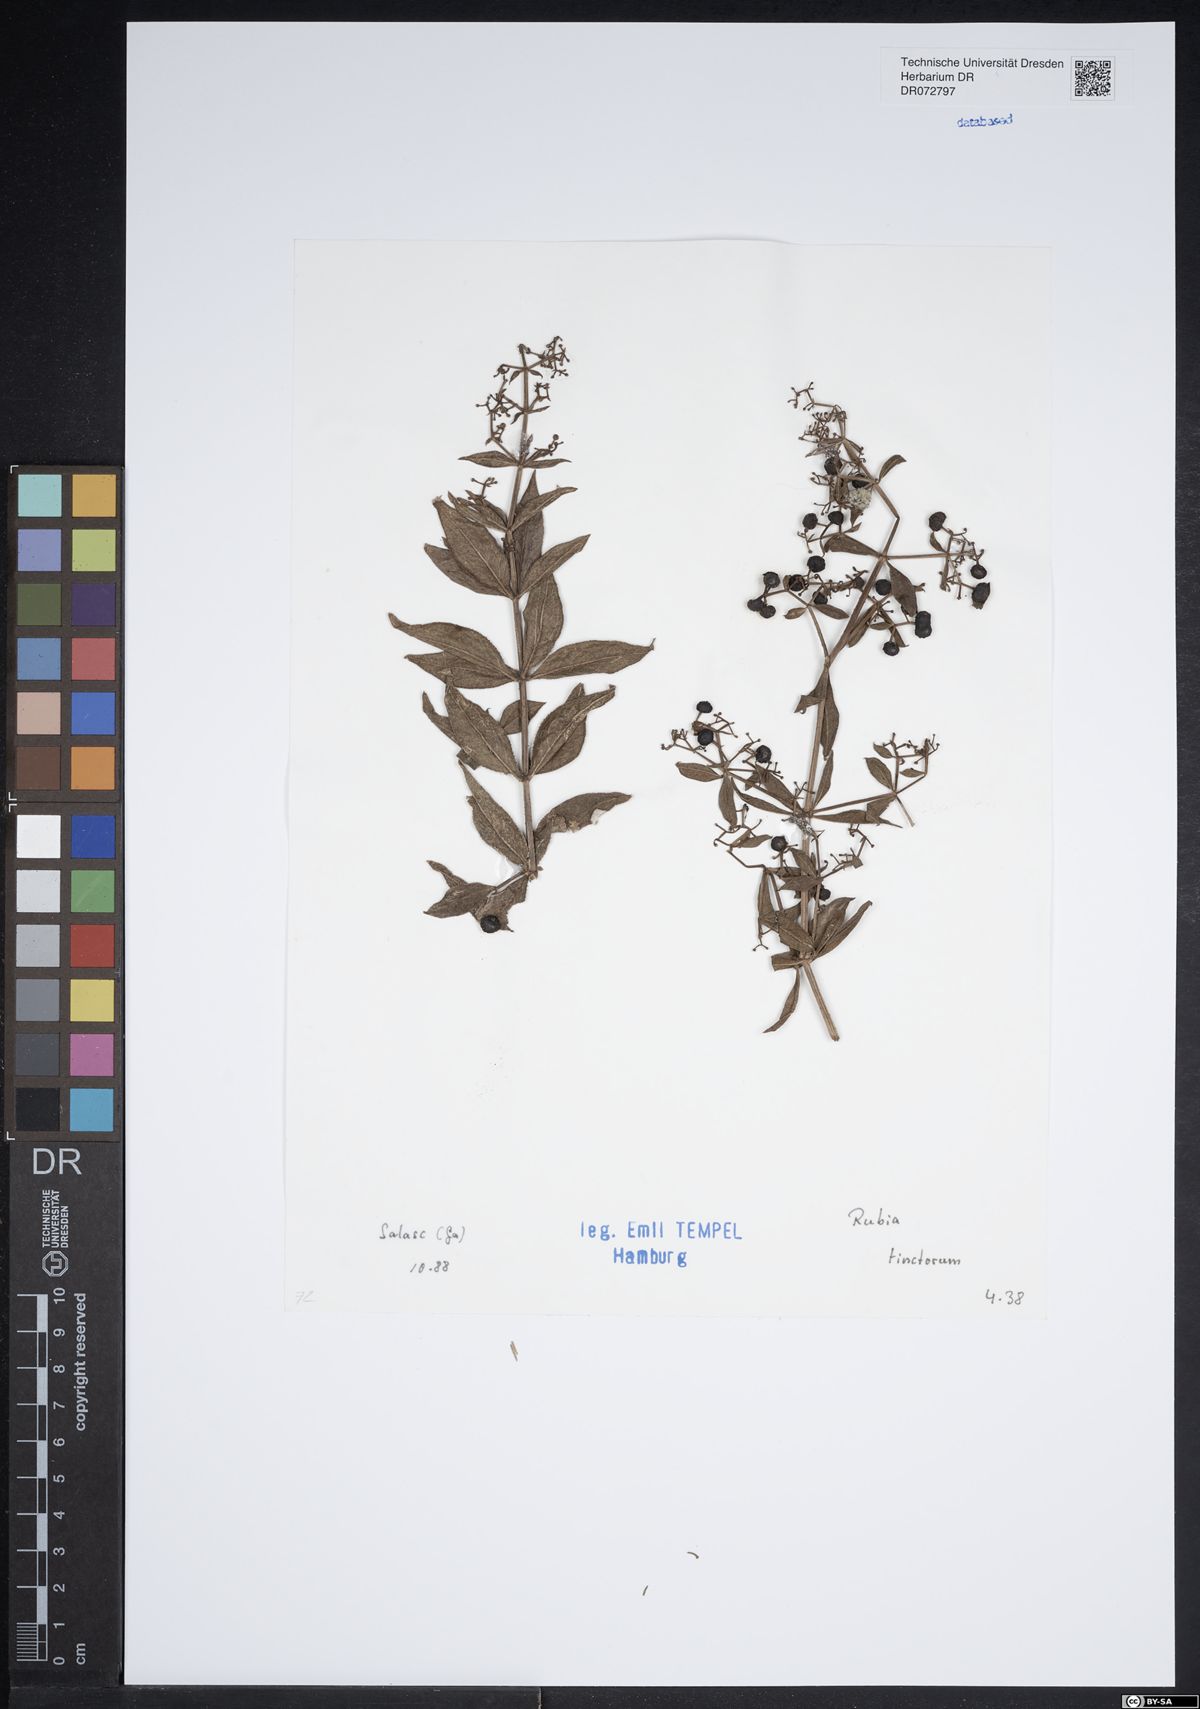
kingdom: Plantae
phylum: Tracheophyta
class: Magnoliopsida
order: Gentianales
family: Rubiaceae
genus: Rubia
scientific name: Rubia tinctorum
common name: Dyer's madder
